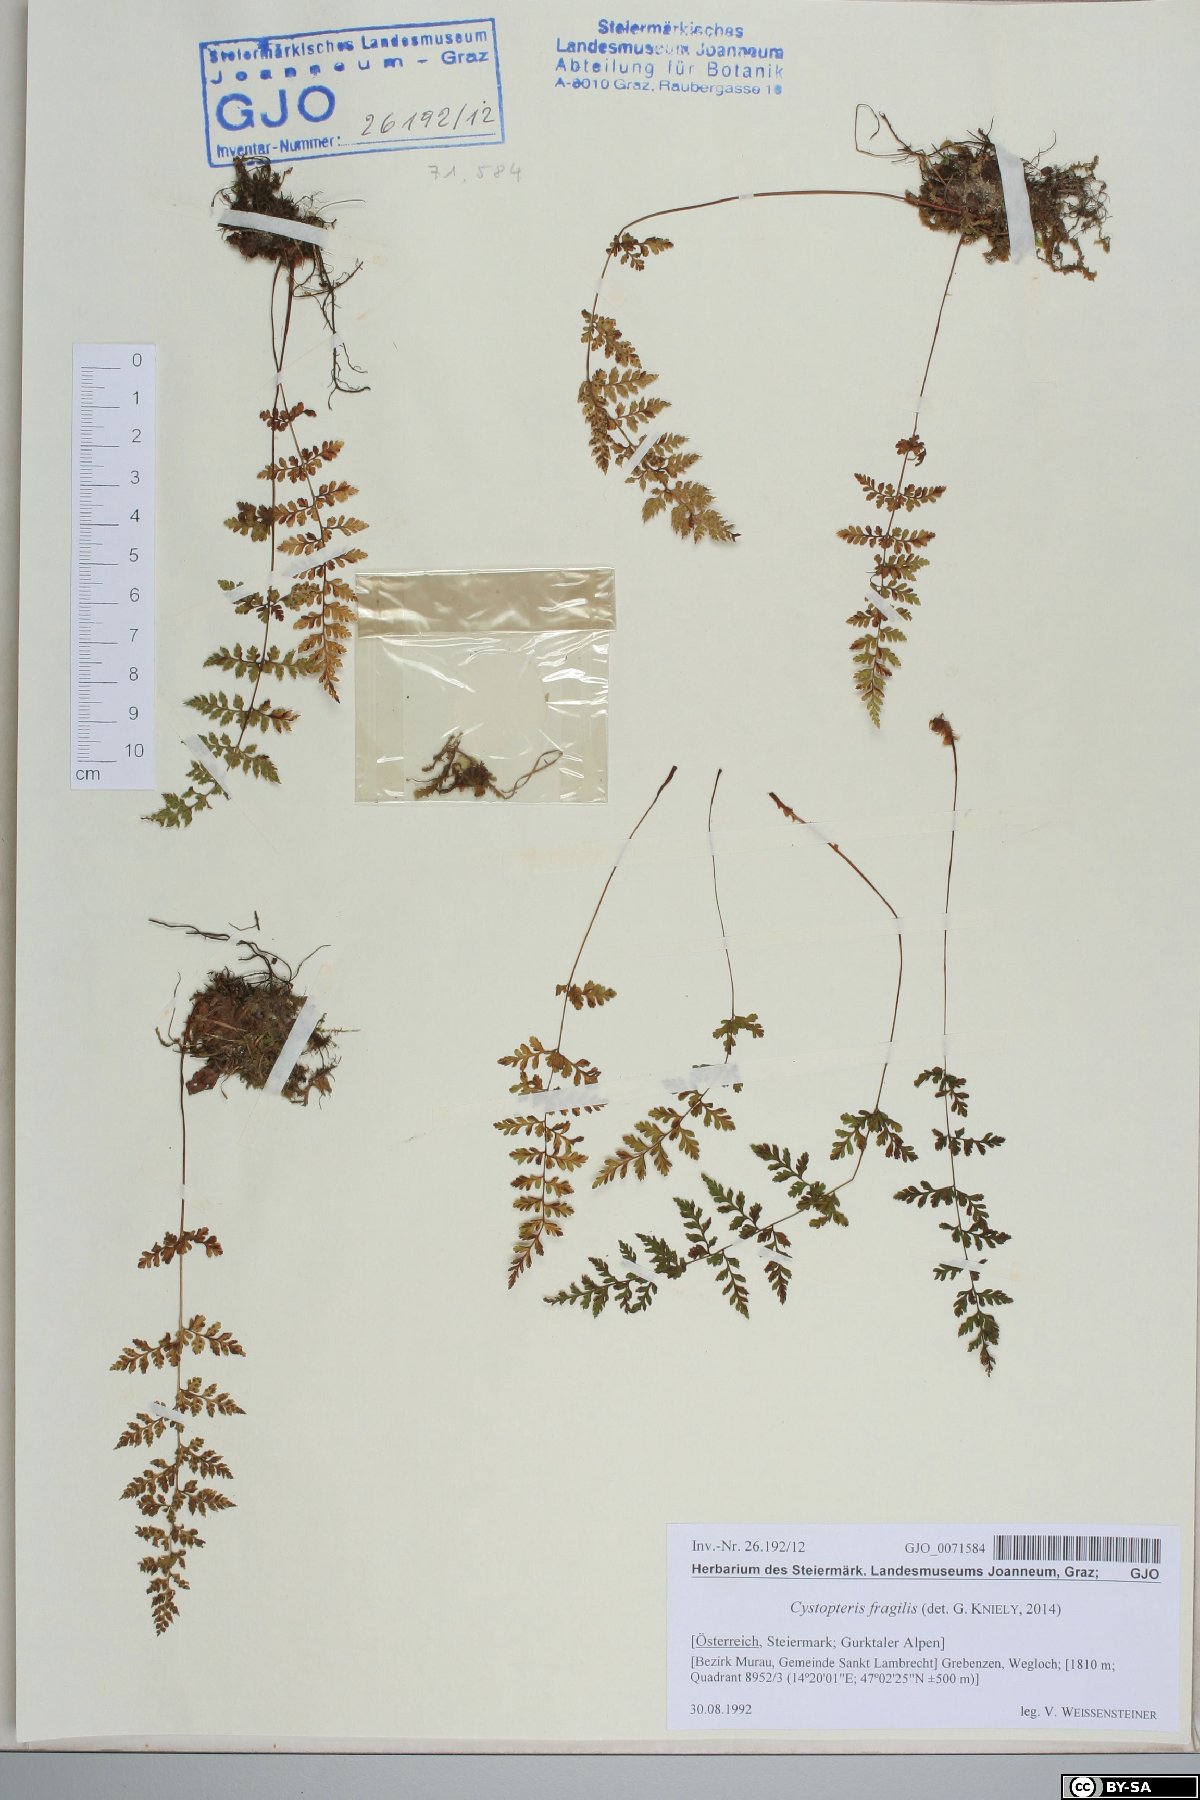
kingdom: Plantae
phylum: Tracheophyta
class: Polypodiopsida
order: Polypodiales
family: Cystopteridaceae
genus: Cystopteris
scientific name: Cystopteris fragilis
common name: Brittle bladder fern
